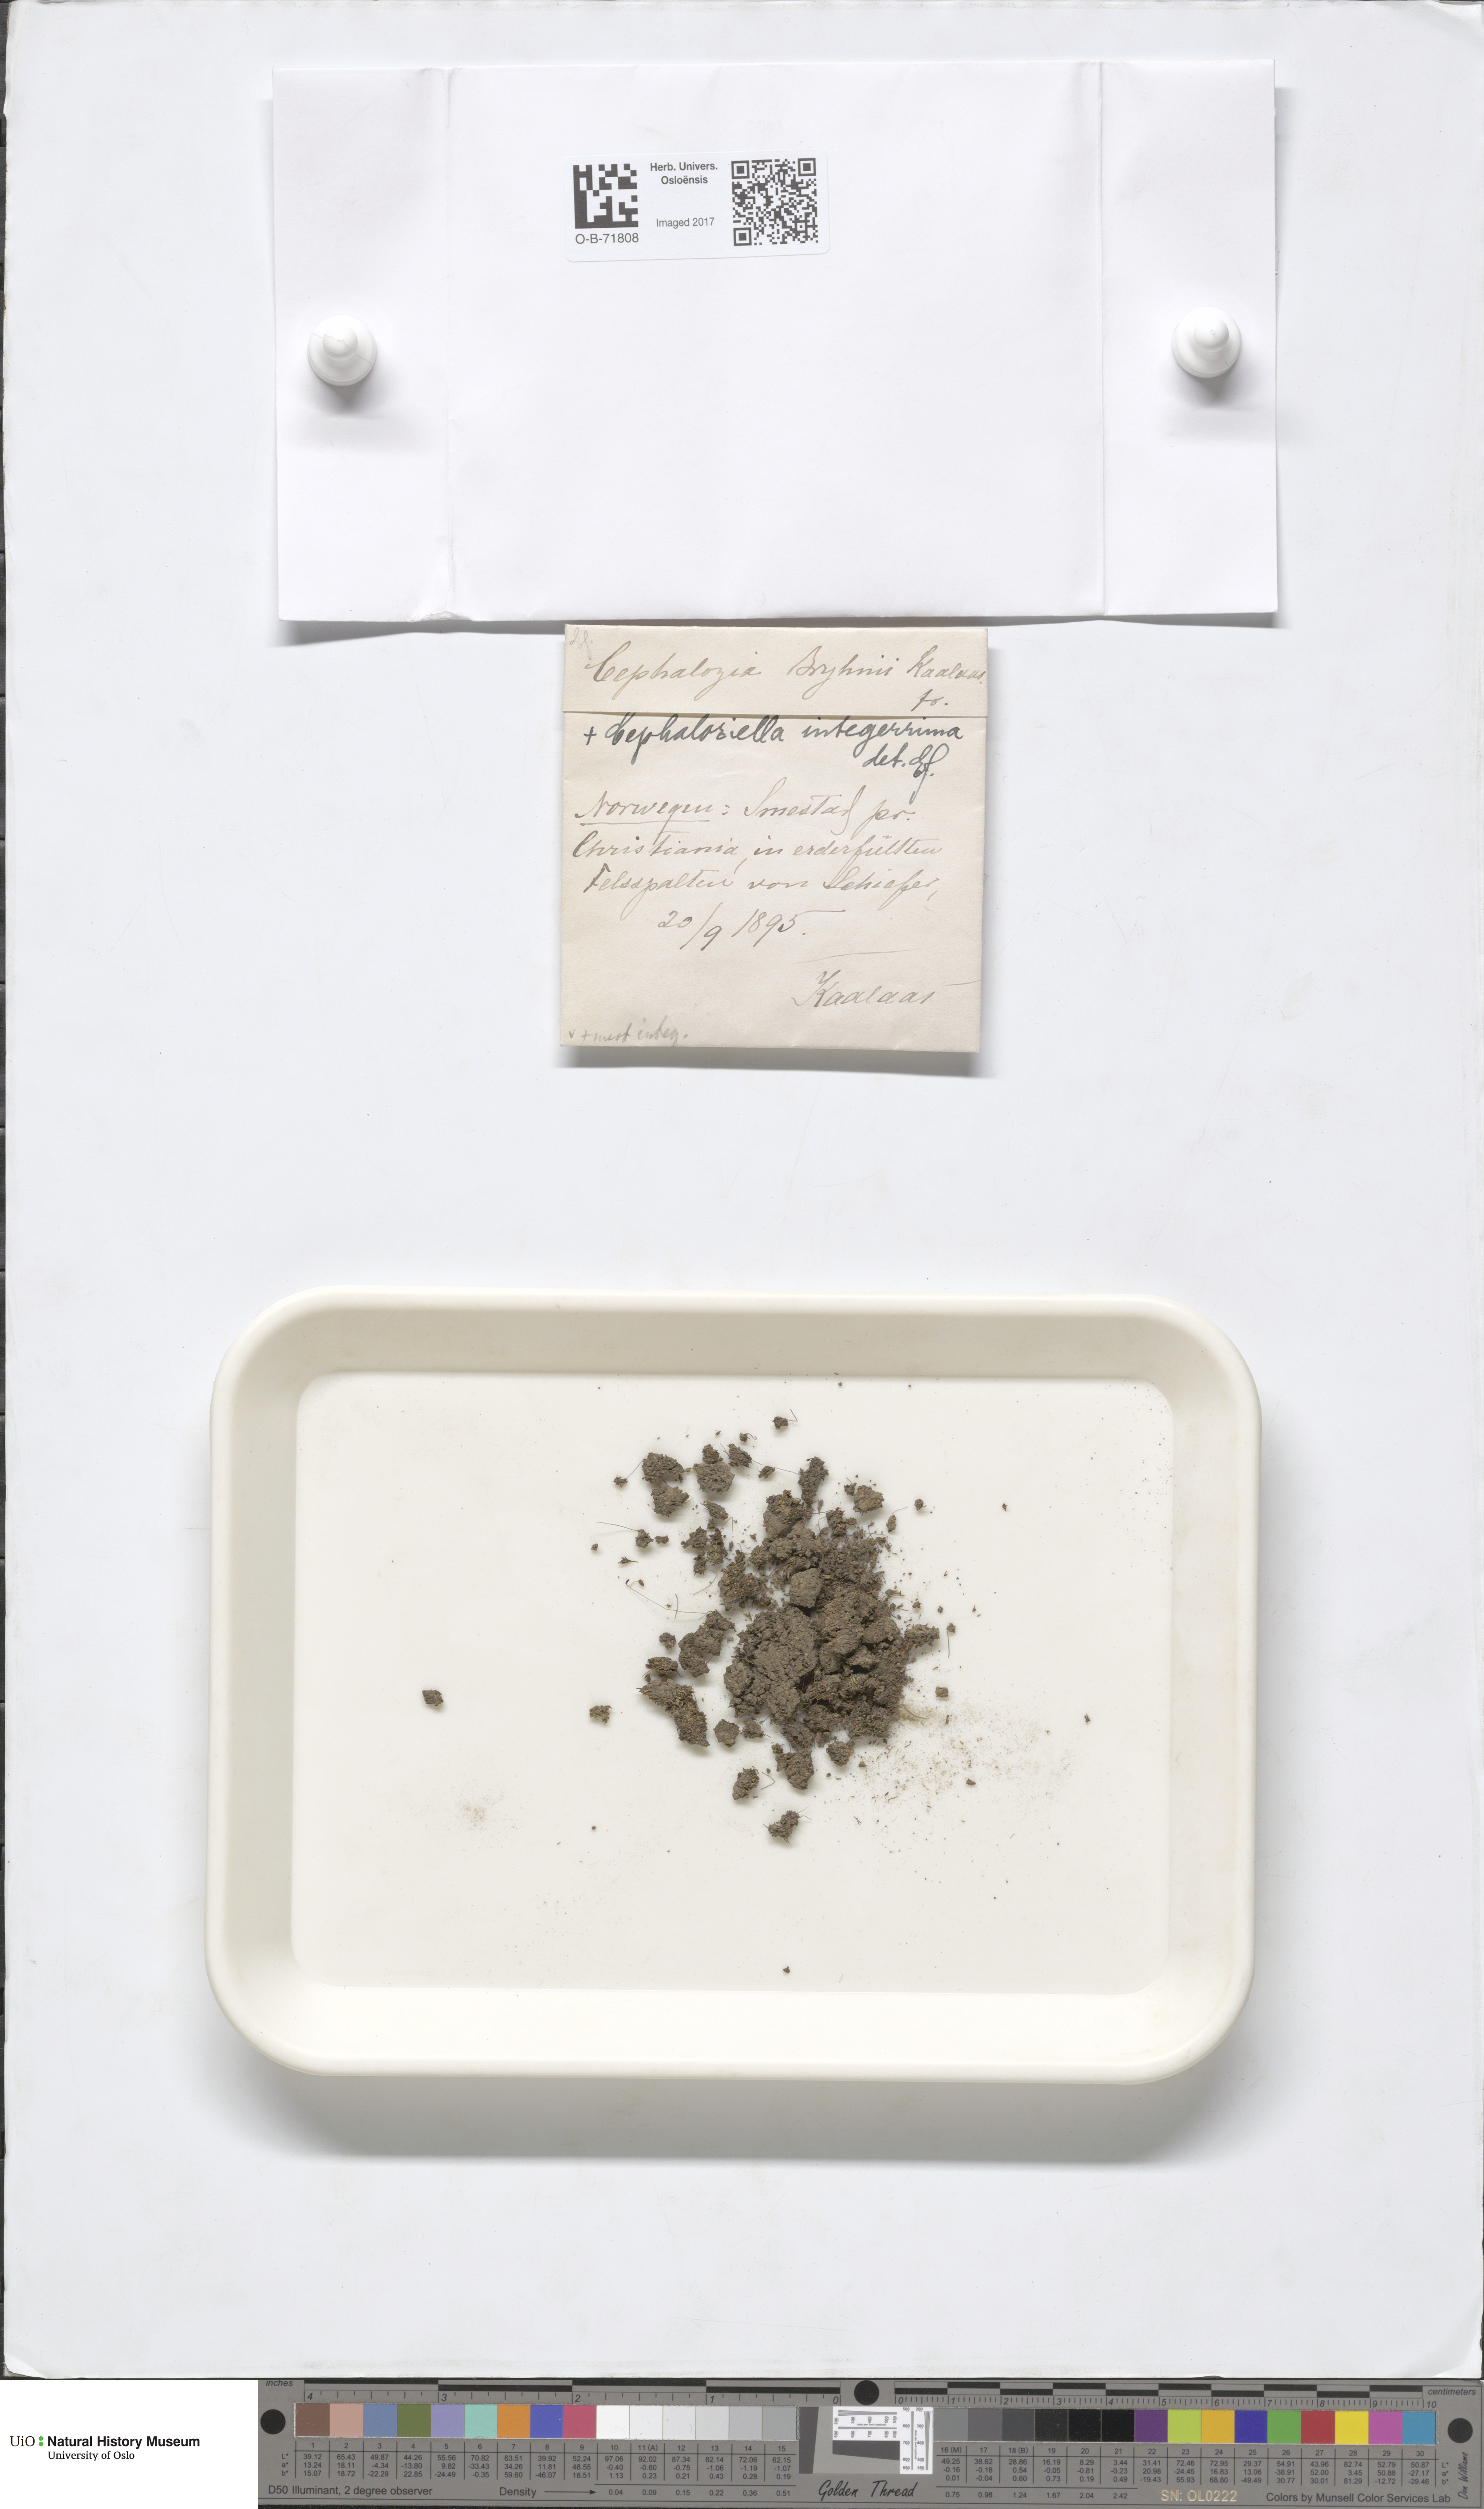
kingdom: Plantae
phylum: Marchantiophyta
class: Jungermanniopsida
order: Jungermanniales
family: Cephaloziellaceae
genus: Cephaloziella
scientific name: Cephaloziella rubella
